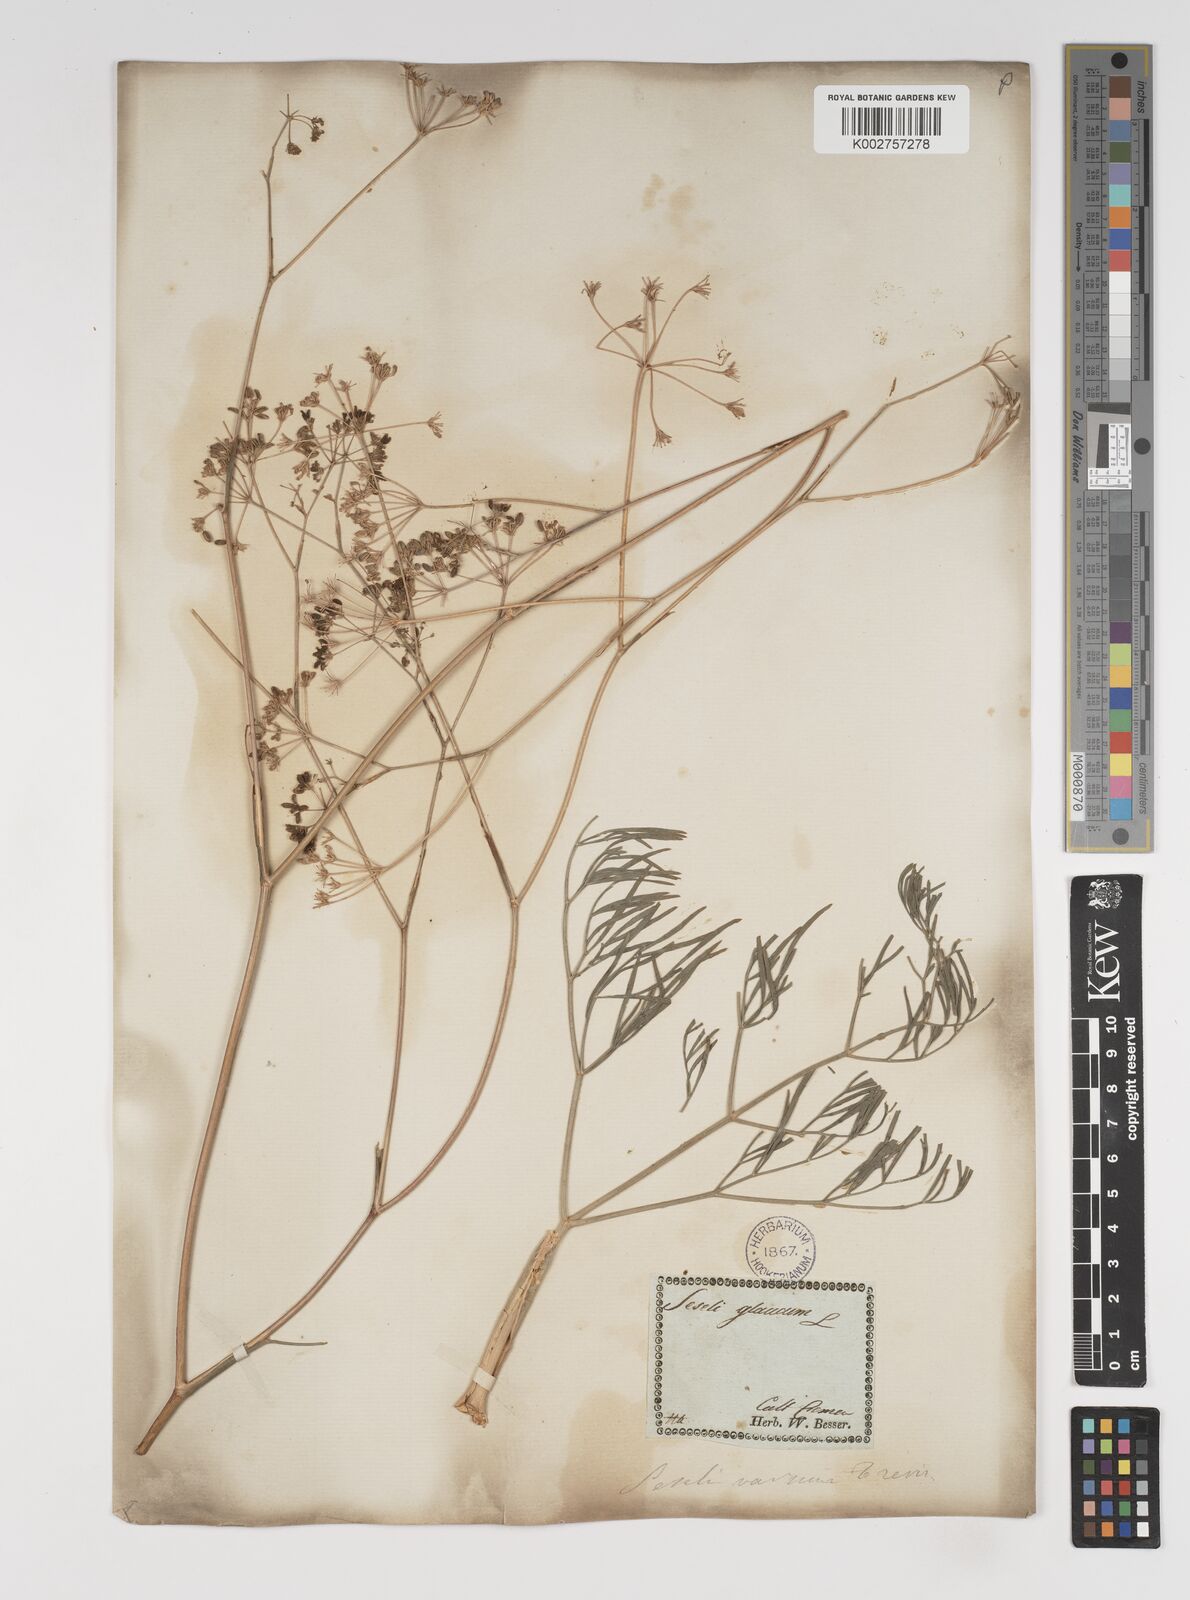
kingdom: Plantae
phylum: Tracheophyta
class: Magnoliopsida
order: Apiales
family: Apiaceae
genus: Seseli
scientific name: Seseli pallasii
